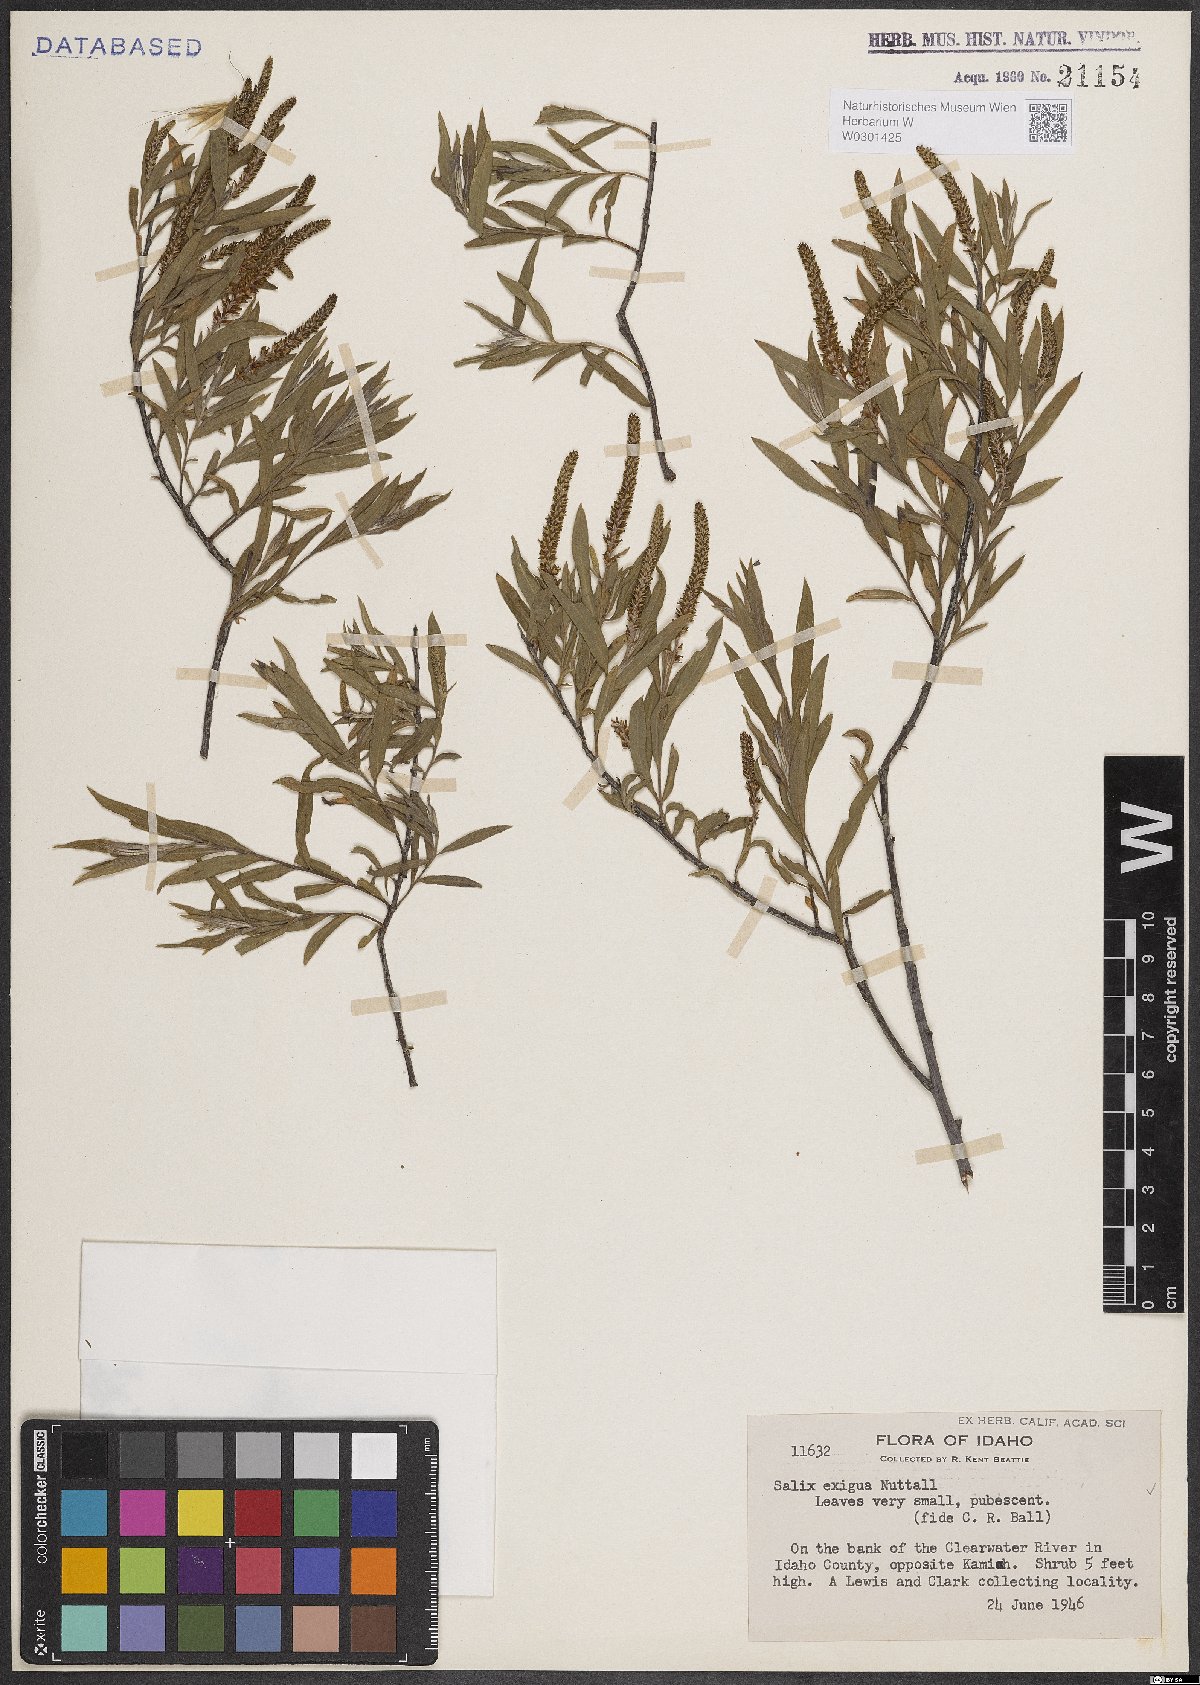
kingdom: Plantae
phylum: Tracheophyta
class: Magnoliopsida
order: Malpighiales
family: Salicaceae
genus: Salix
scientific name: Salix exigua
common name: Coyote willow
